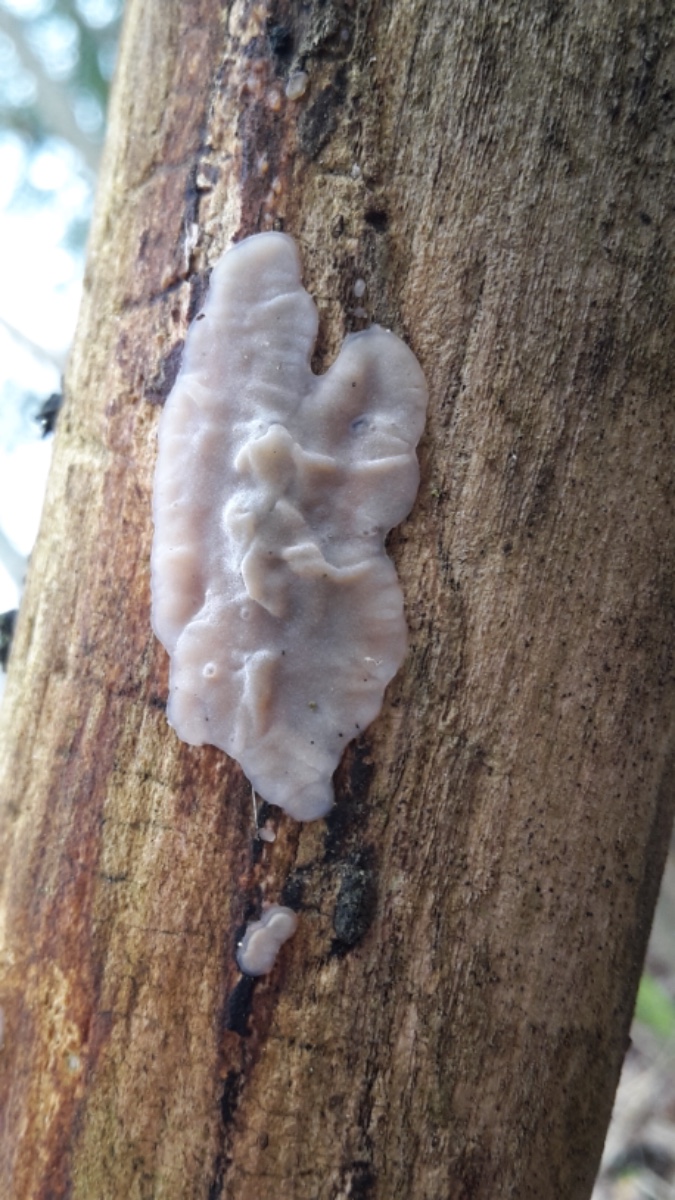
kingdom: Fungi
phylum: Basidiomycota
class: Agaricomycetes
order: Auriculariales
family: Auriculariaceae
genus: Exidia
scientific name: Exidia thuretiana
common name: hvidlig bævretop
